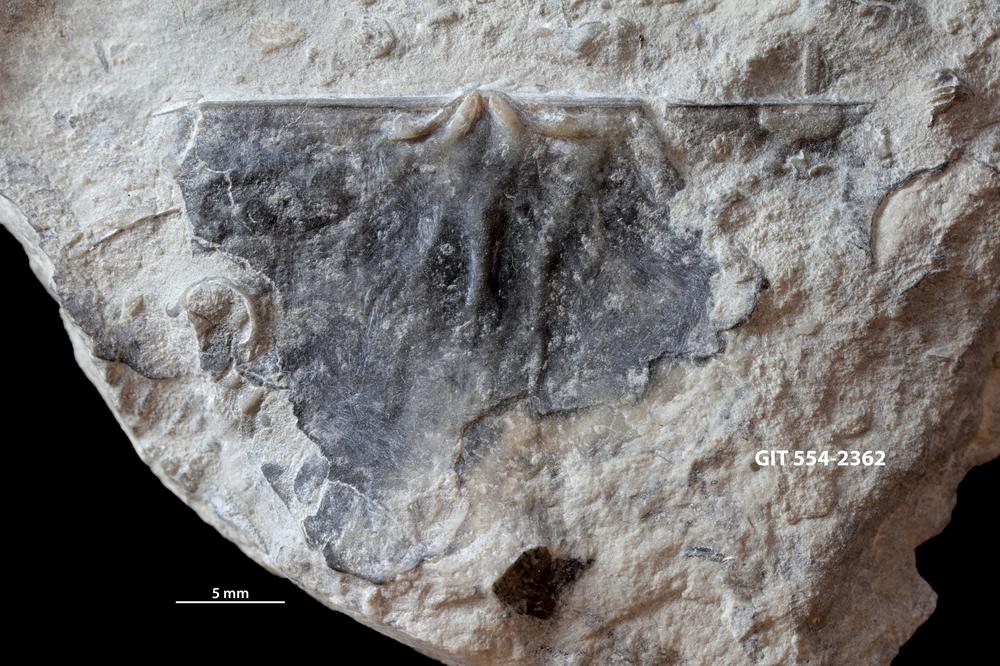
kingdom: Animalia
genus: Eostropheodonta
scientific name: Eostropheodonta delicata
